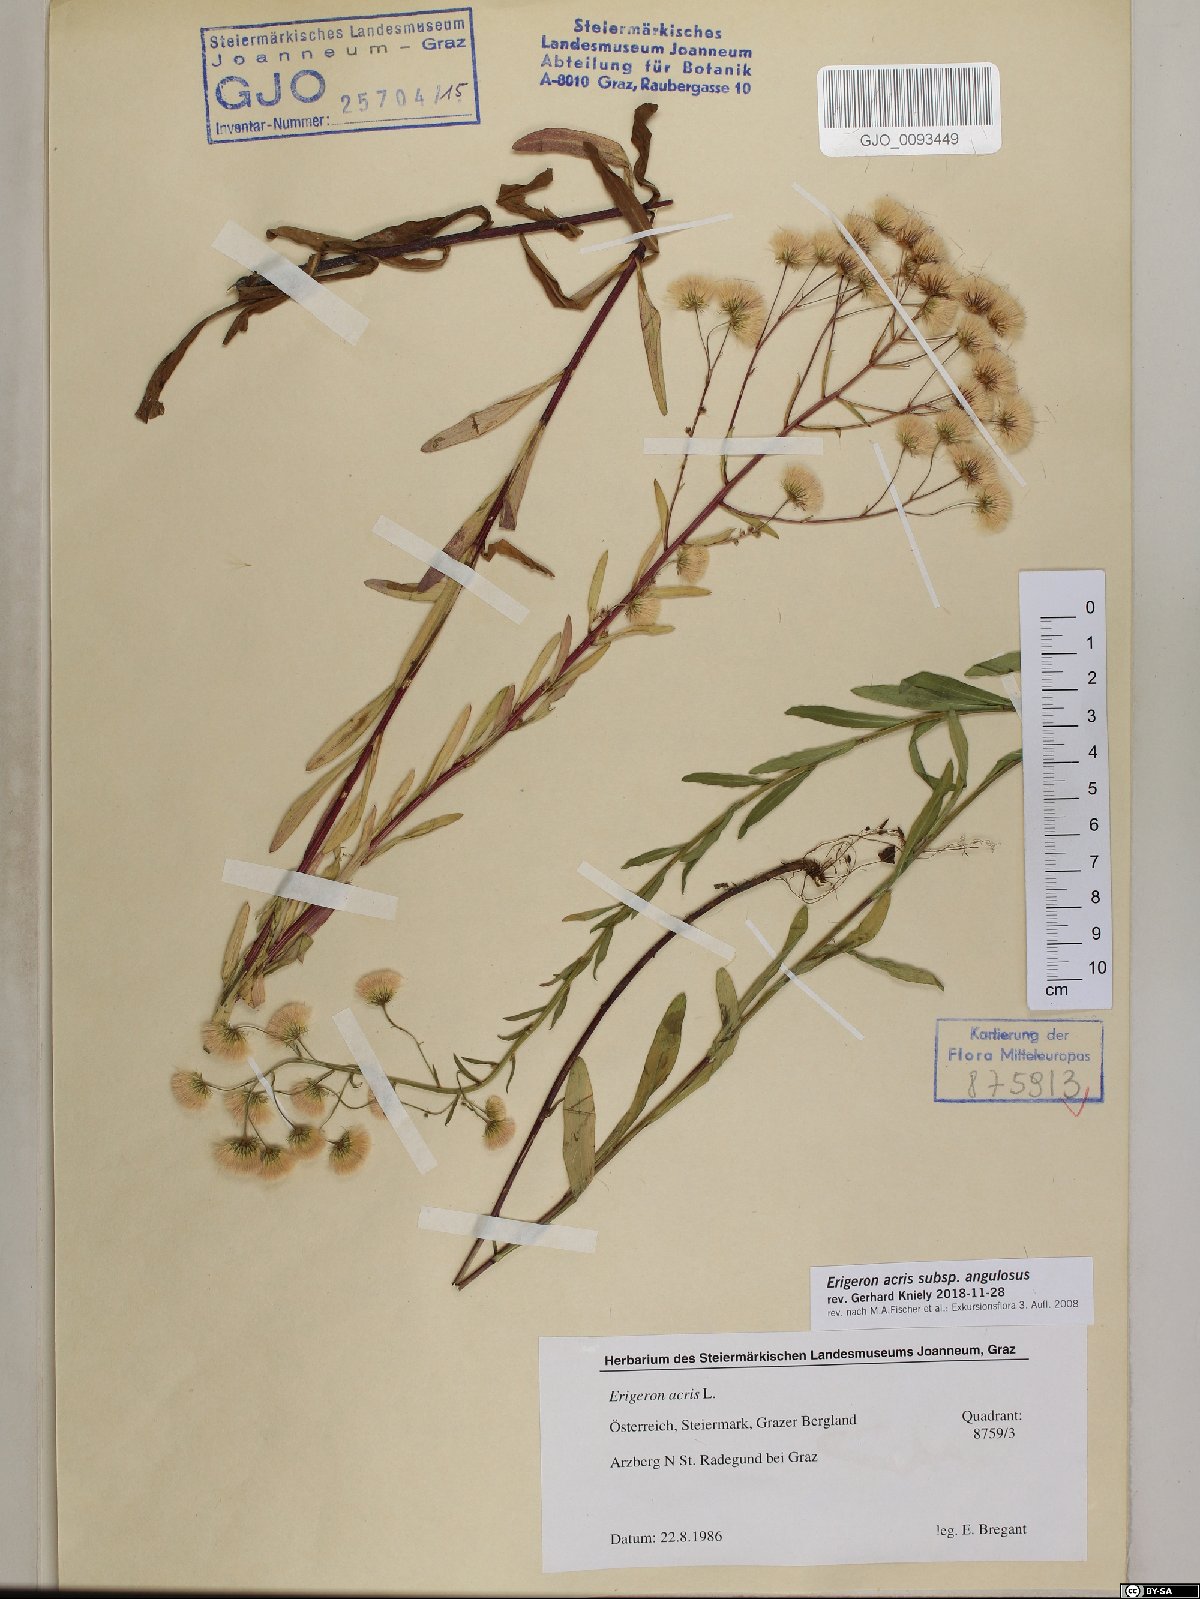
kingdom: Plantae
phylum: Tracheophyta
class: Magnoliopsida
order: Asterales
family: Asteraceae
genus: Erigeron
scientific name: Erigeron angulosus
